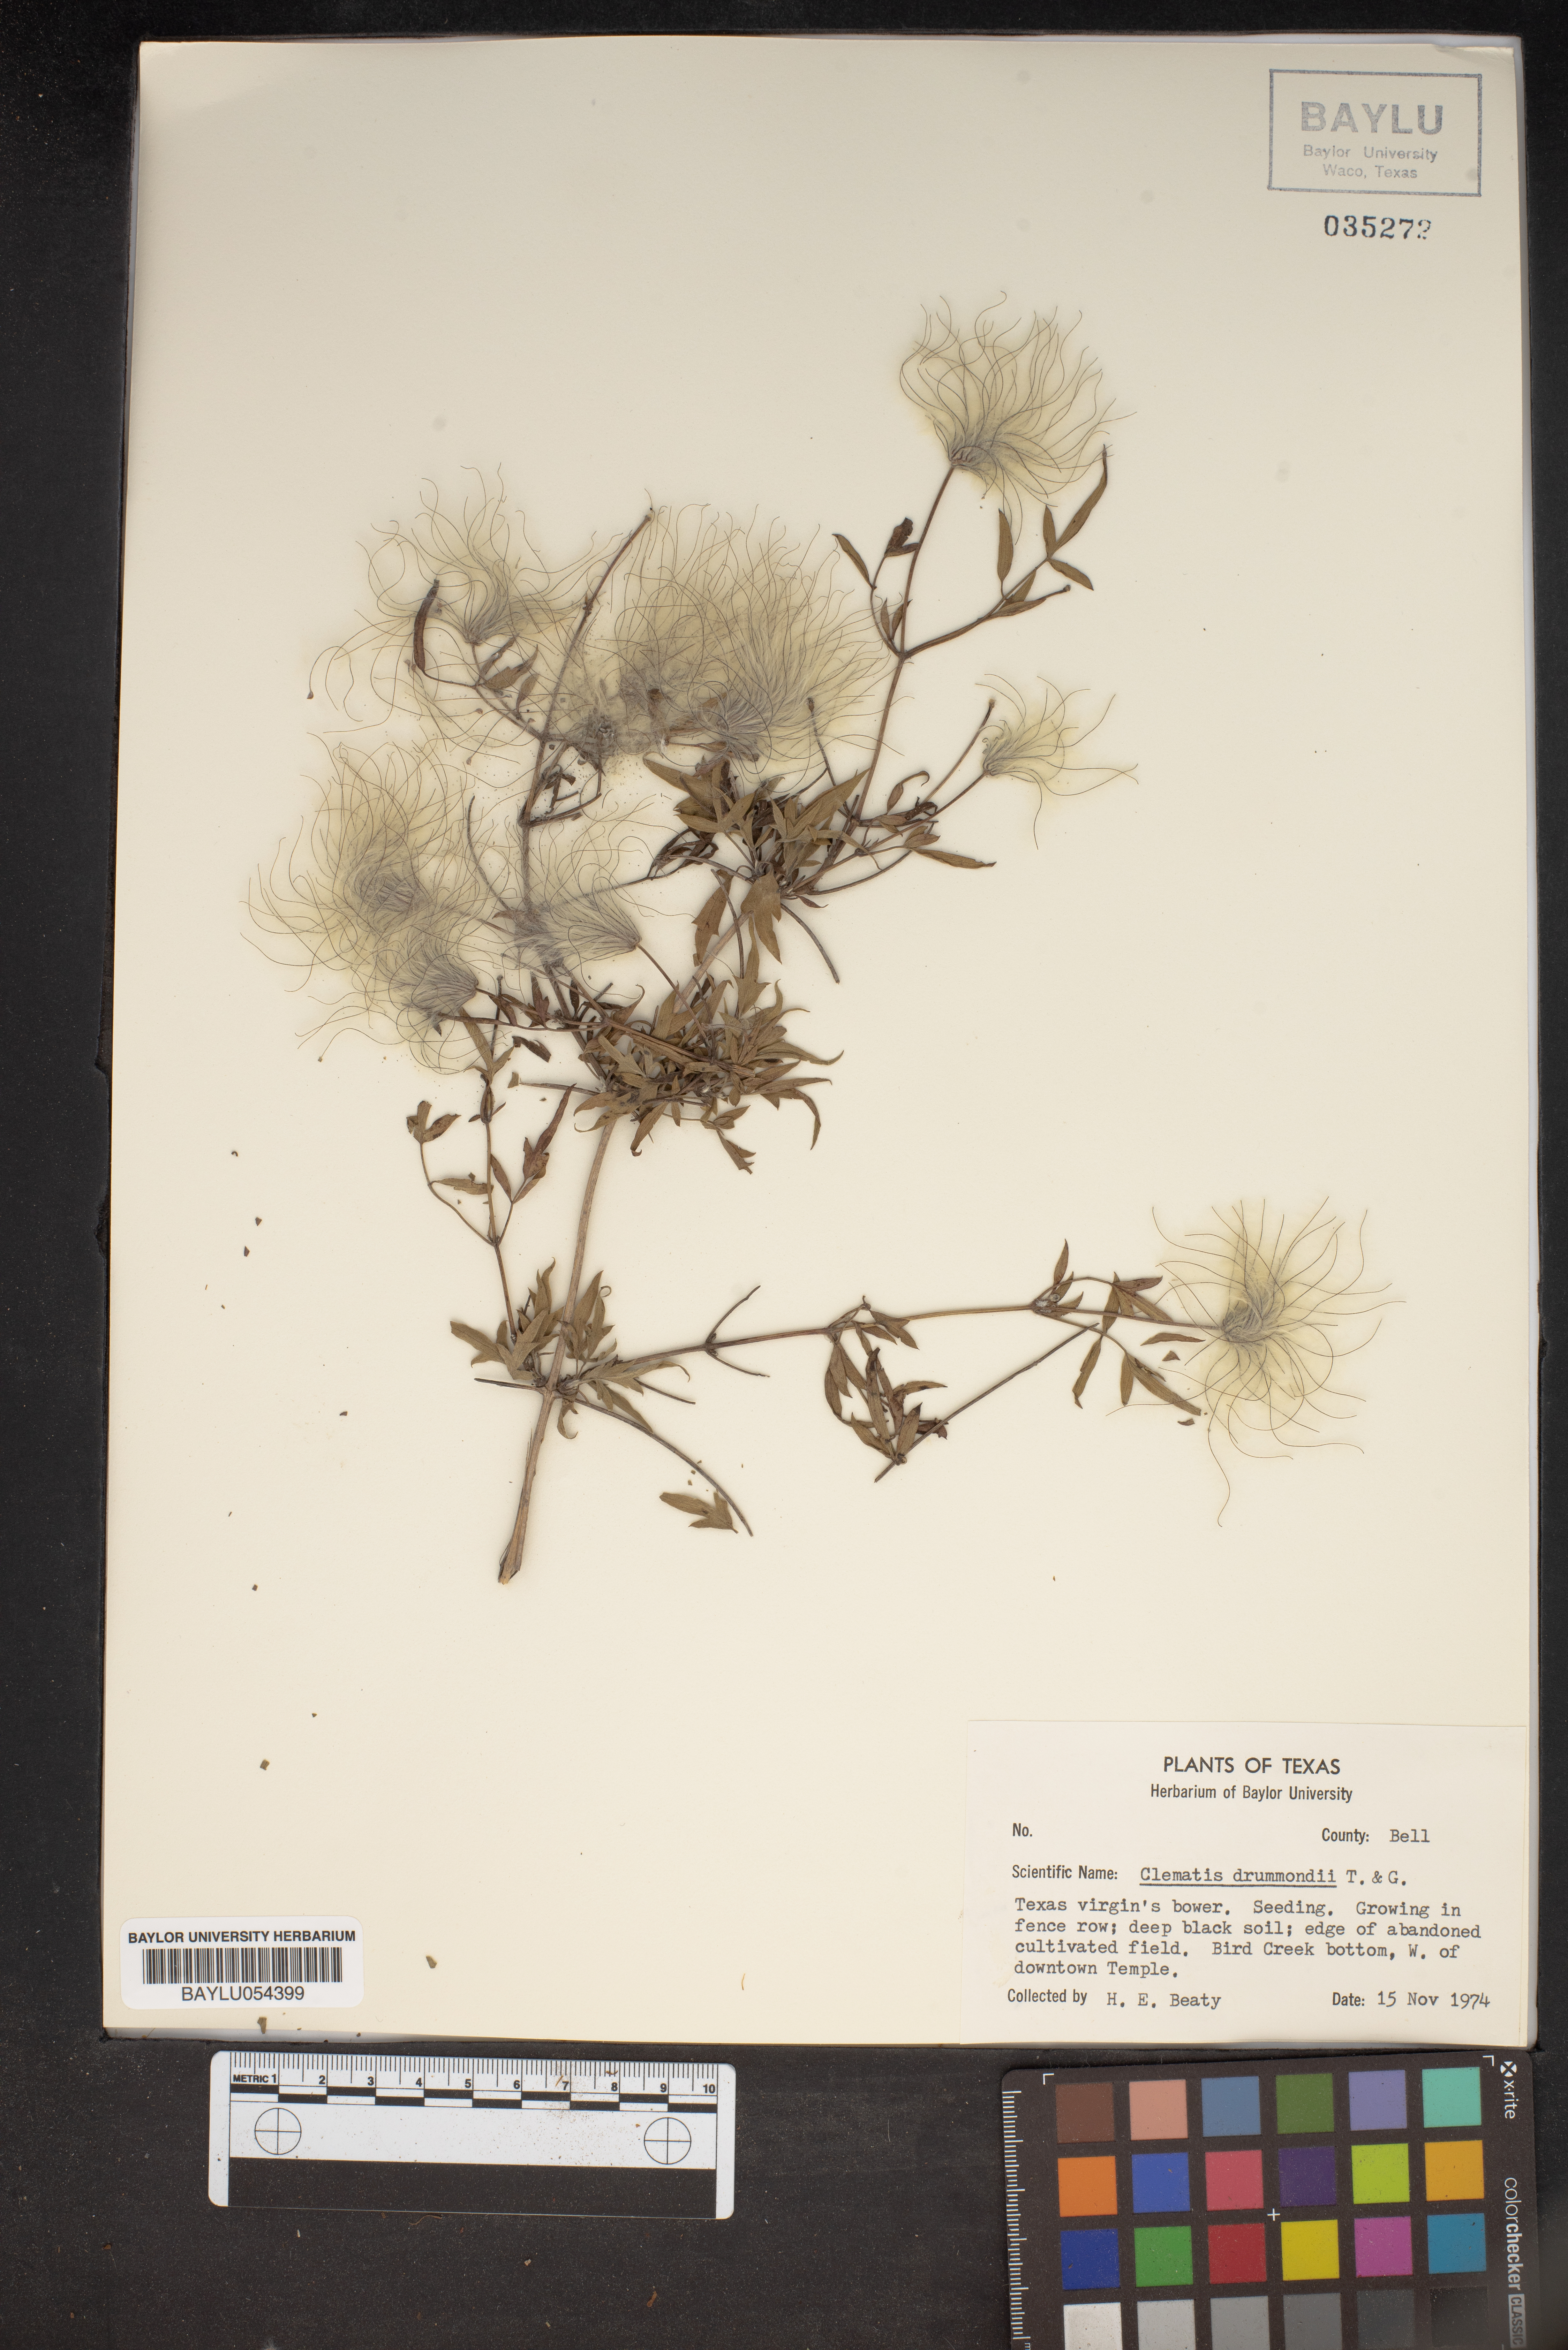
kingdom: Plantae
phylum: Tracheophyta
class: Magnoliopsida
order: Ranunculales
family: Ranunculaceae
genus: Clematis
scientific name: Clematis drummondii
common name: Texas virgin's bower
